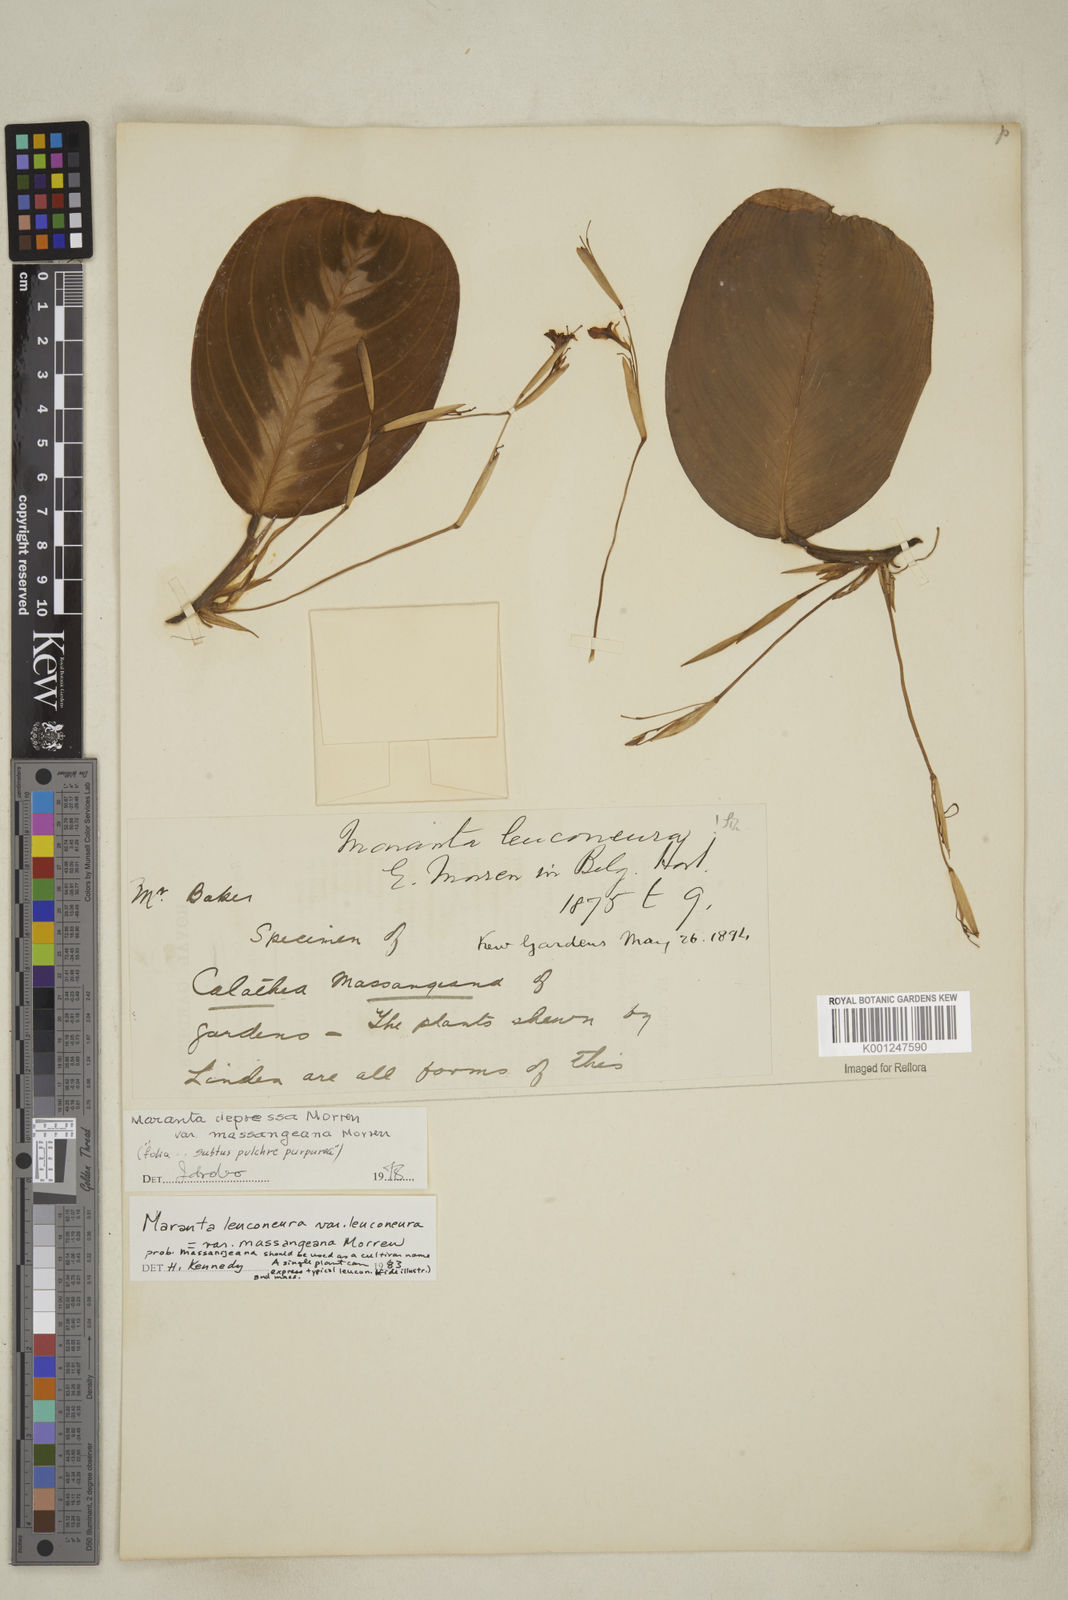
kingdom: Plantae
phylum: Tracheophyta
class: Liliopsida
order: Zingiberales
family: Marantaceae
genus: Maranta
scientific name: Maranta leuconeura
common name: Ten-commandments
